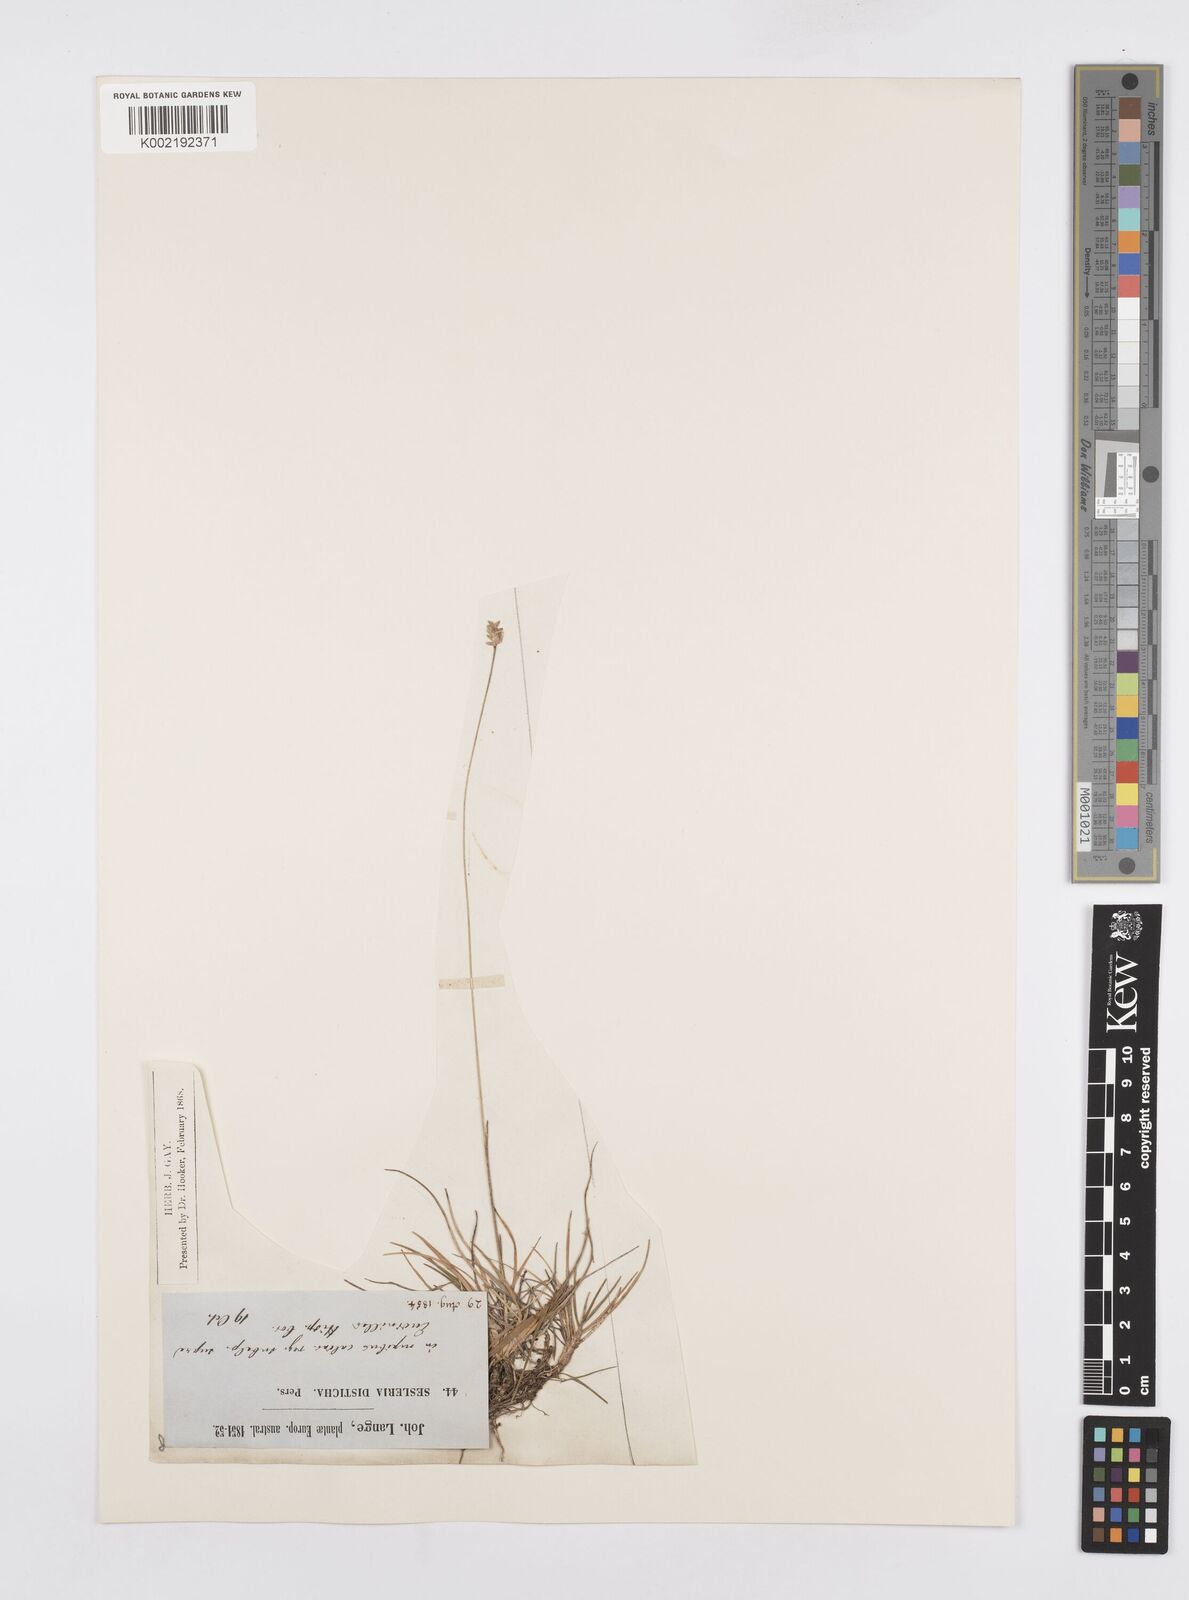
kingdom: Plantae
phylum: Tracheophyta
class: Liliopsida
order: Poales
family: Poaceae
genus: Oreochloa
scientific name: Oreochloa confusa
